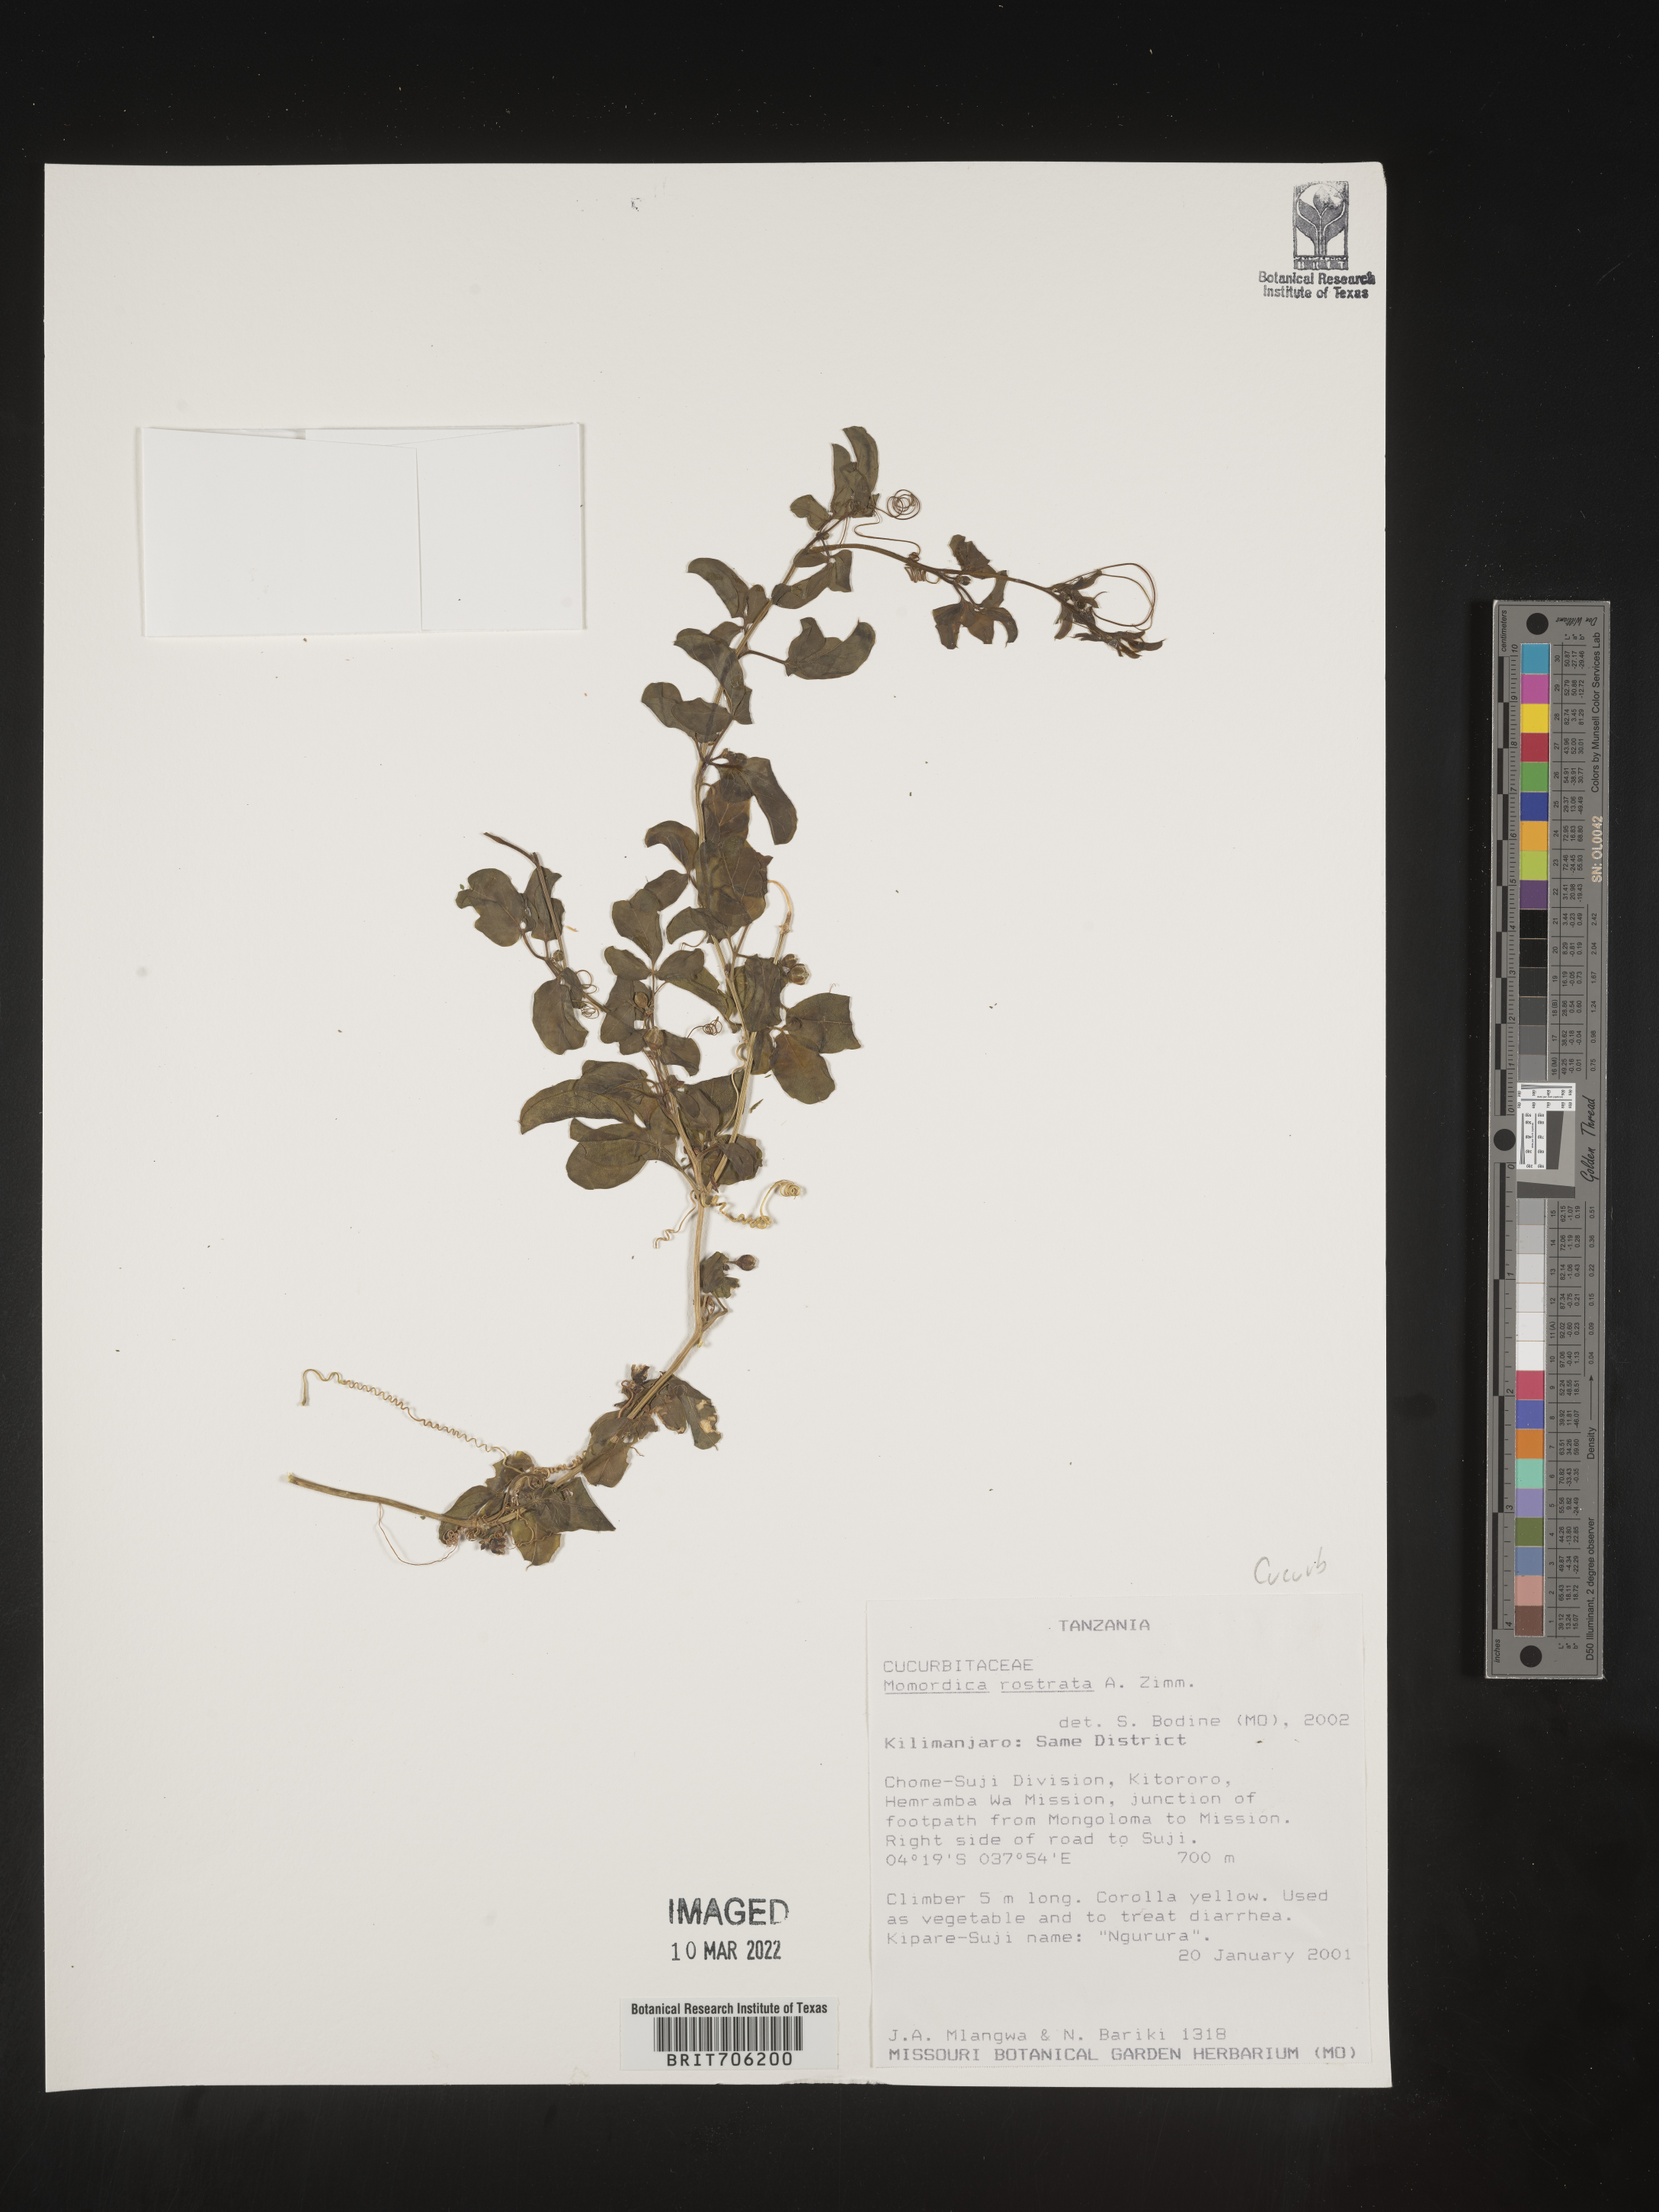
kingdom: Plantae
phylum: Tracheophyta
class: Magnoliopsida
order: Cucurbitales
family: Cucurbitaceae
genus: Momordica
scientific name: Momordica
